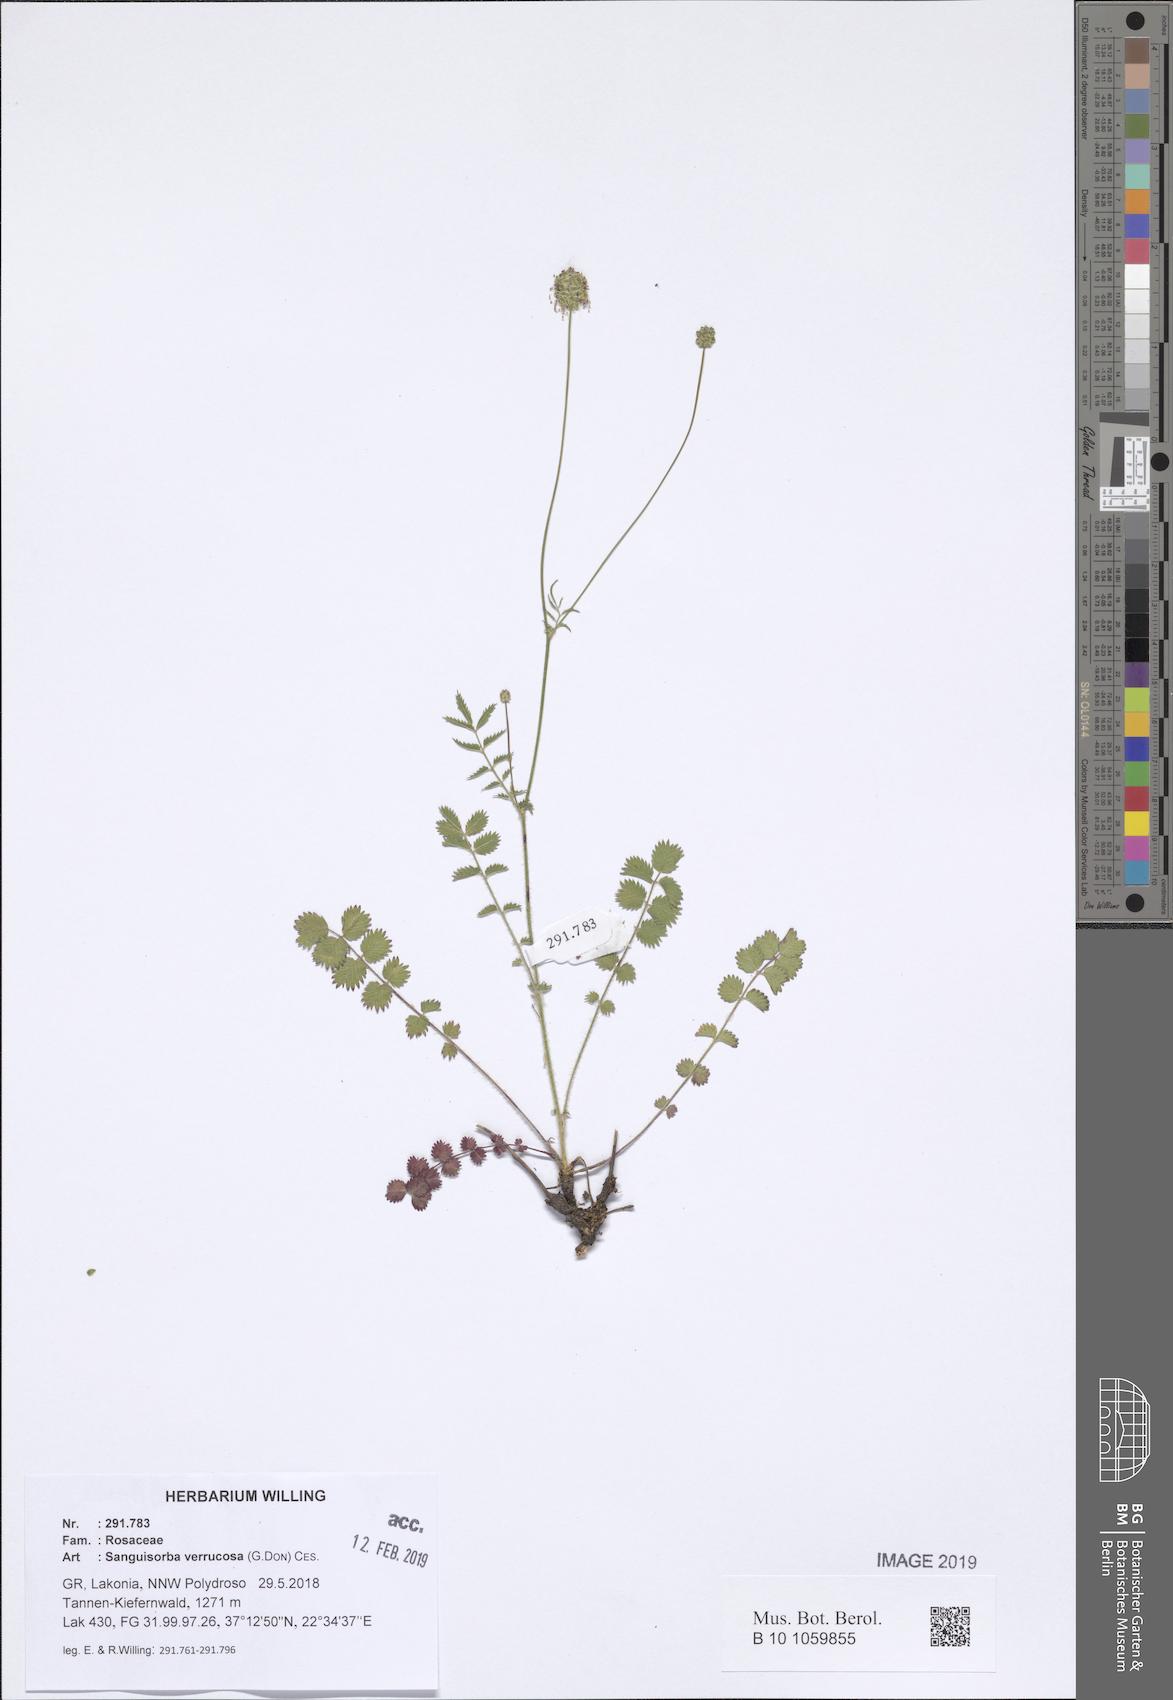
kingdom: Plantae
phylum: Tracheophyta
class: Magnoliopsida
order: Rosales
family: Rosaceae
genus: Poterium
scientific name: Poterium verrucosum
